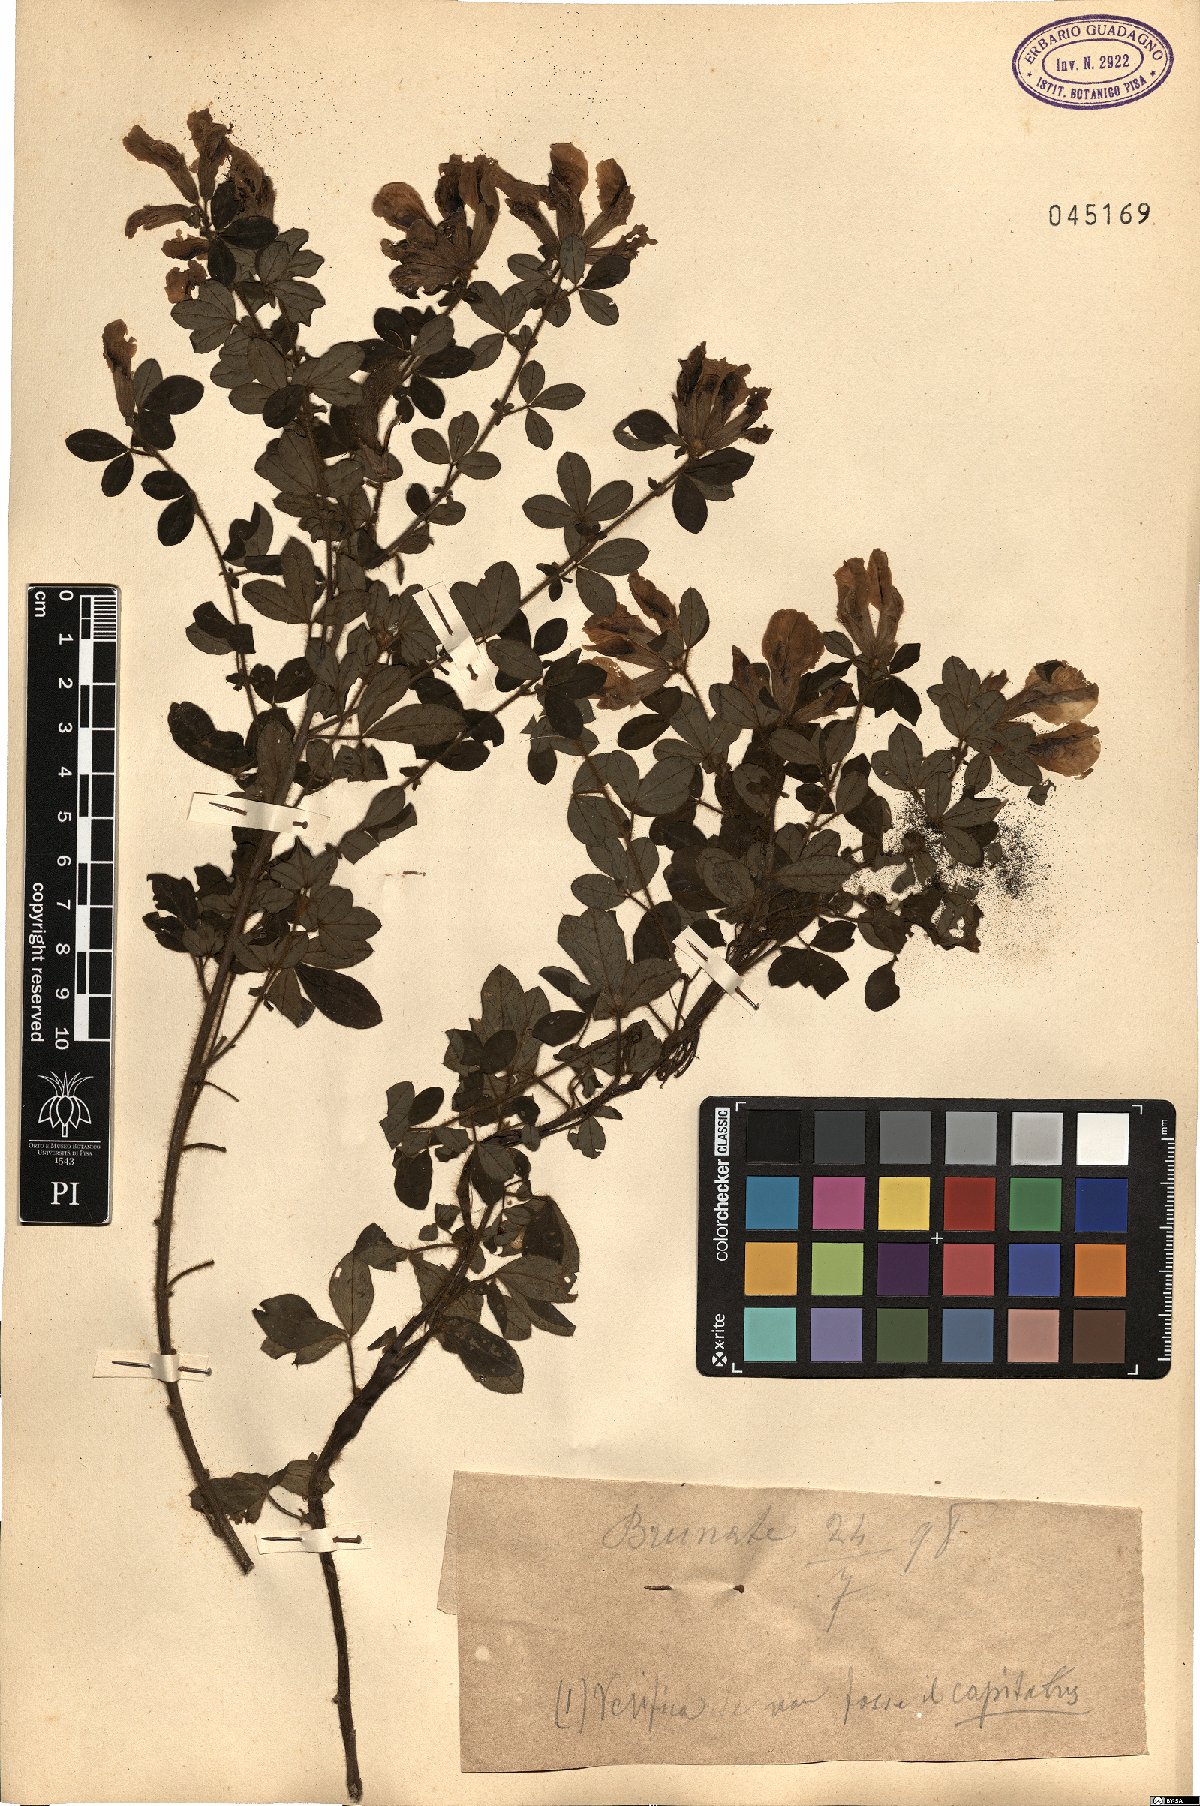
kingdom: Plantae
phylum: Tracheophyta
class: Magnoliopsida
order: Fabales
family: Fabaceae
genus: Chamaecytisus
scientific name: Chamaecytisus hirsutus
